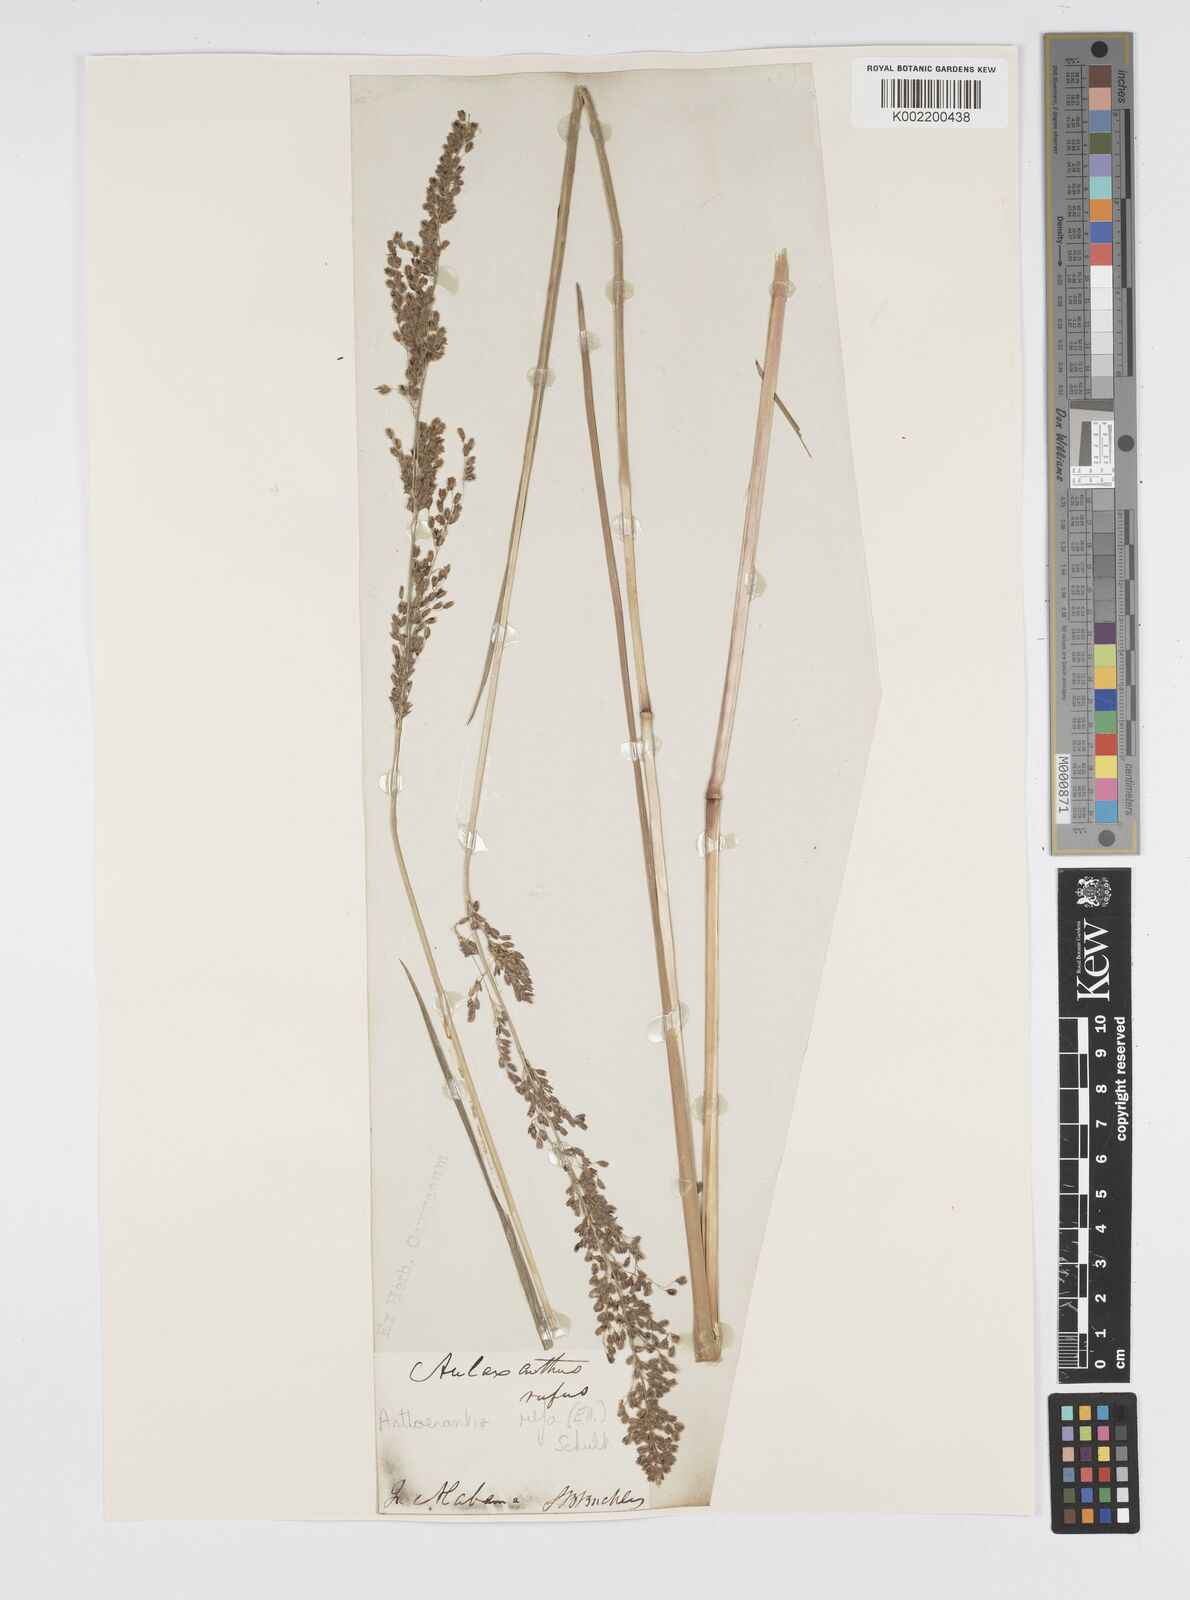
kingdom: Plantae
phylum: Tracheophyta
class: Liliopsida
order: Poales
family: Poaceae
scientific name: Poaceae
